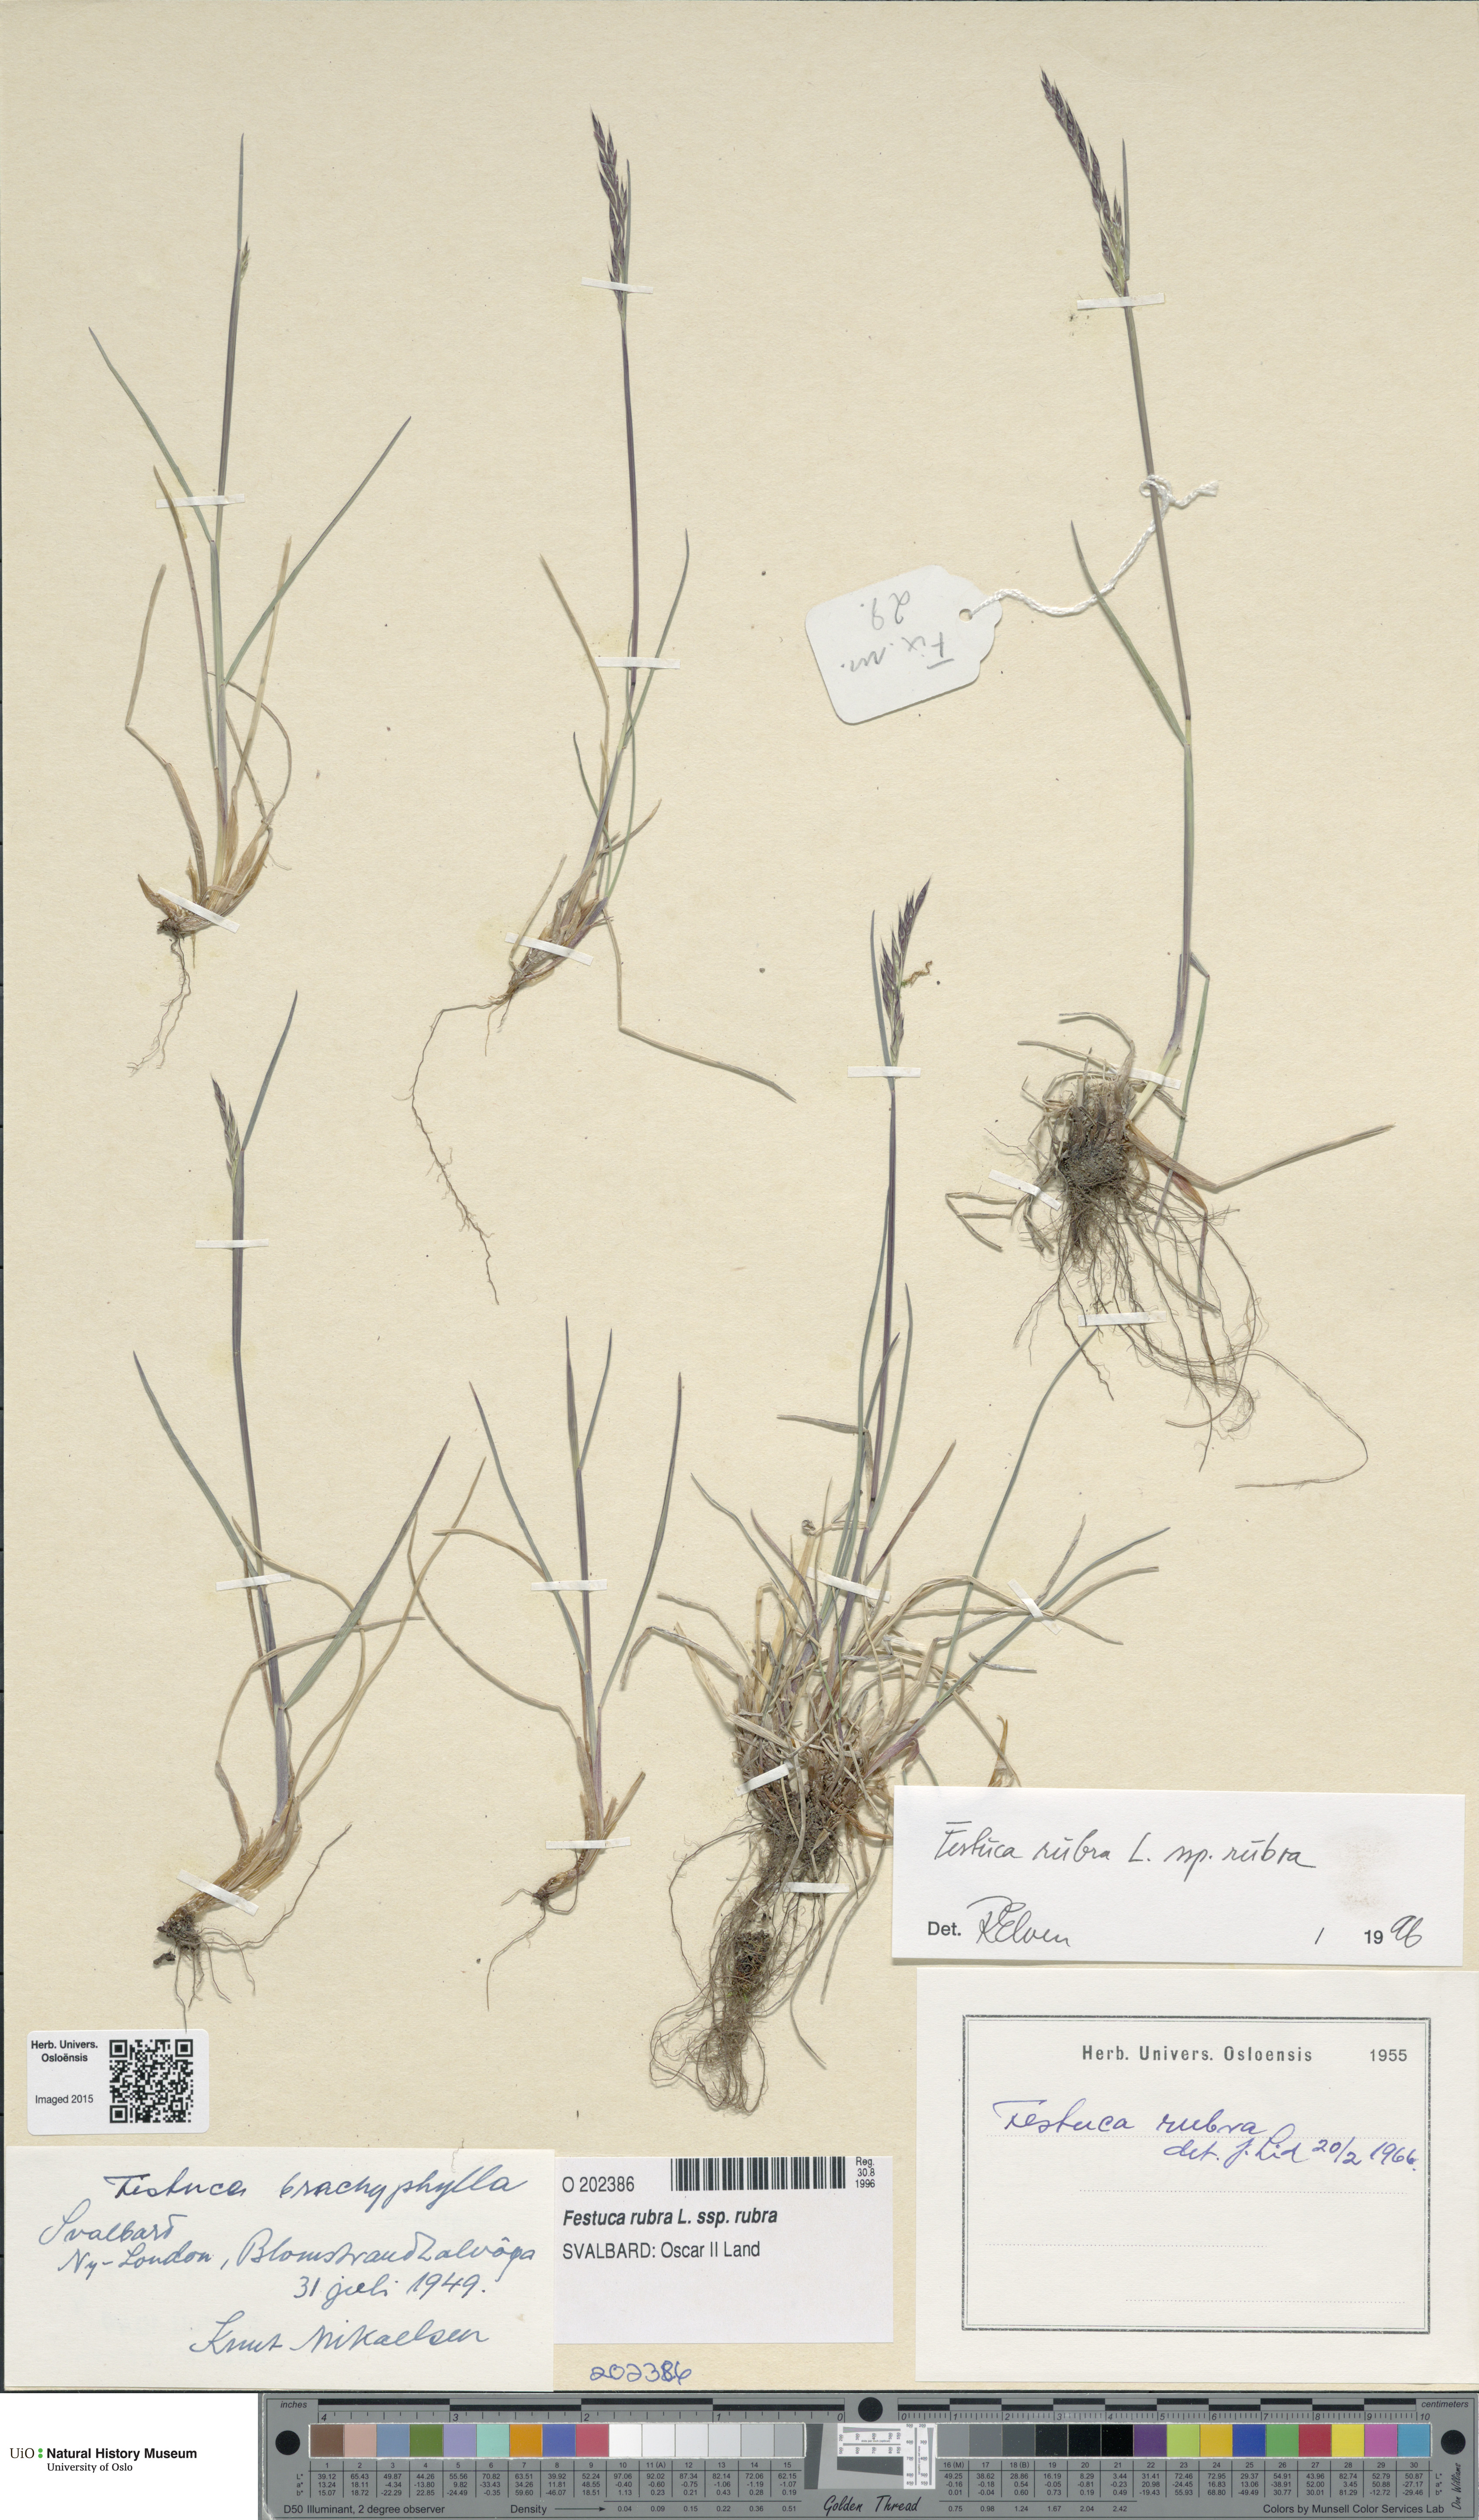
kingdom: Plantae
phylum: Tracheophyta
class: Liliopsida
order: Poales
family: Poaceae
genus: Festuca
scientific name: Festuca rubra
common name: Red fescue
